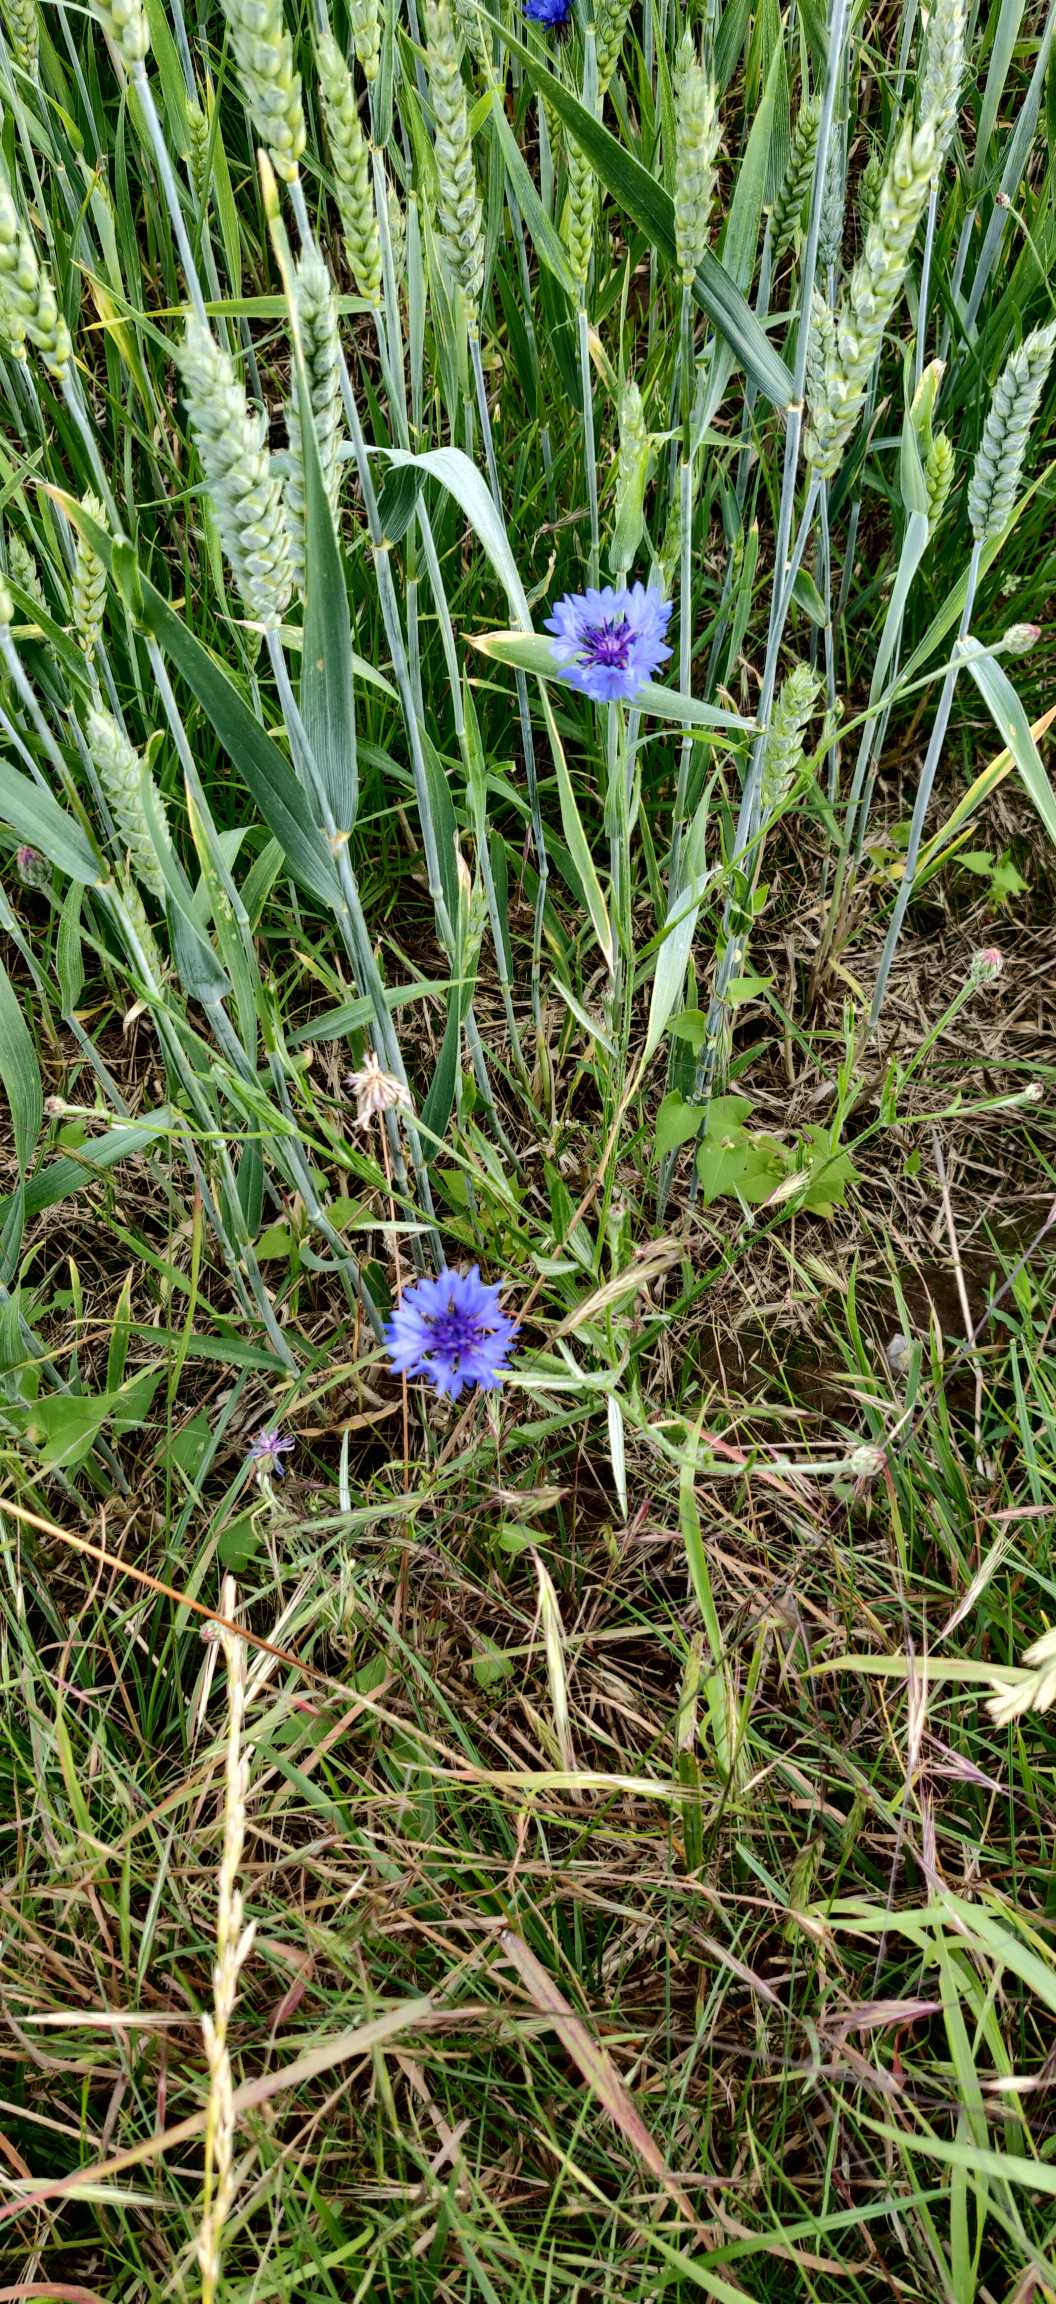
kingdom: Plantae
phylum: Tracheophyta
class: Magnoliopsida
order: Asterales
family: Asteraceae
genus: Centaurea
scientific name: Centaurea cyanus
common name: Kornblomst
